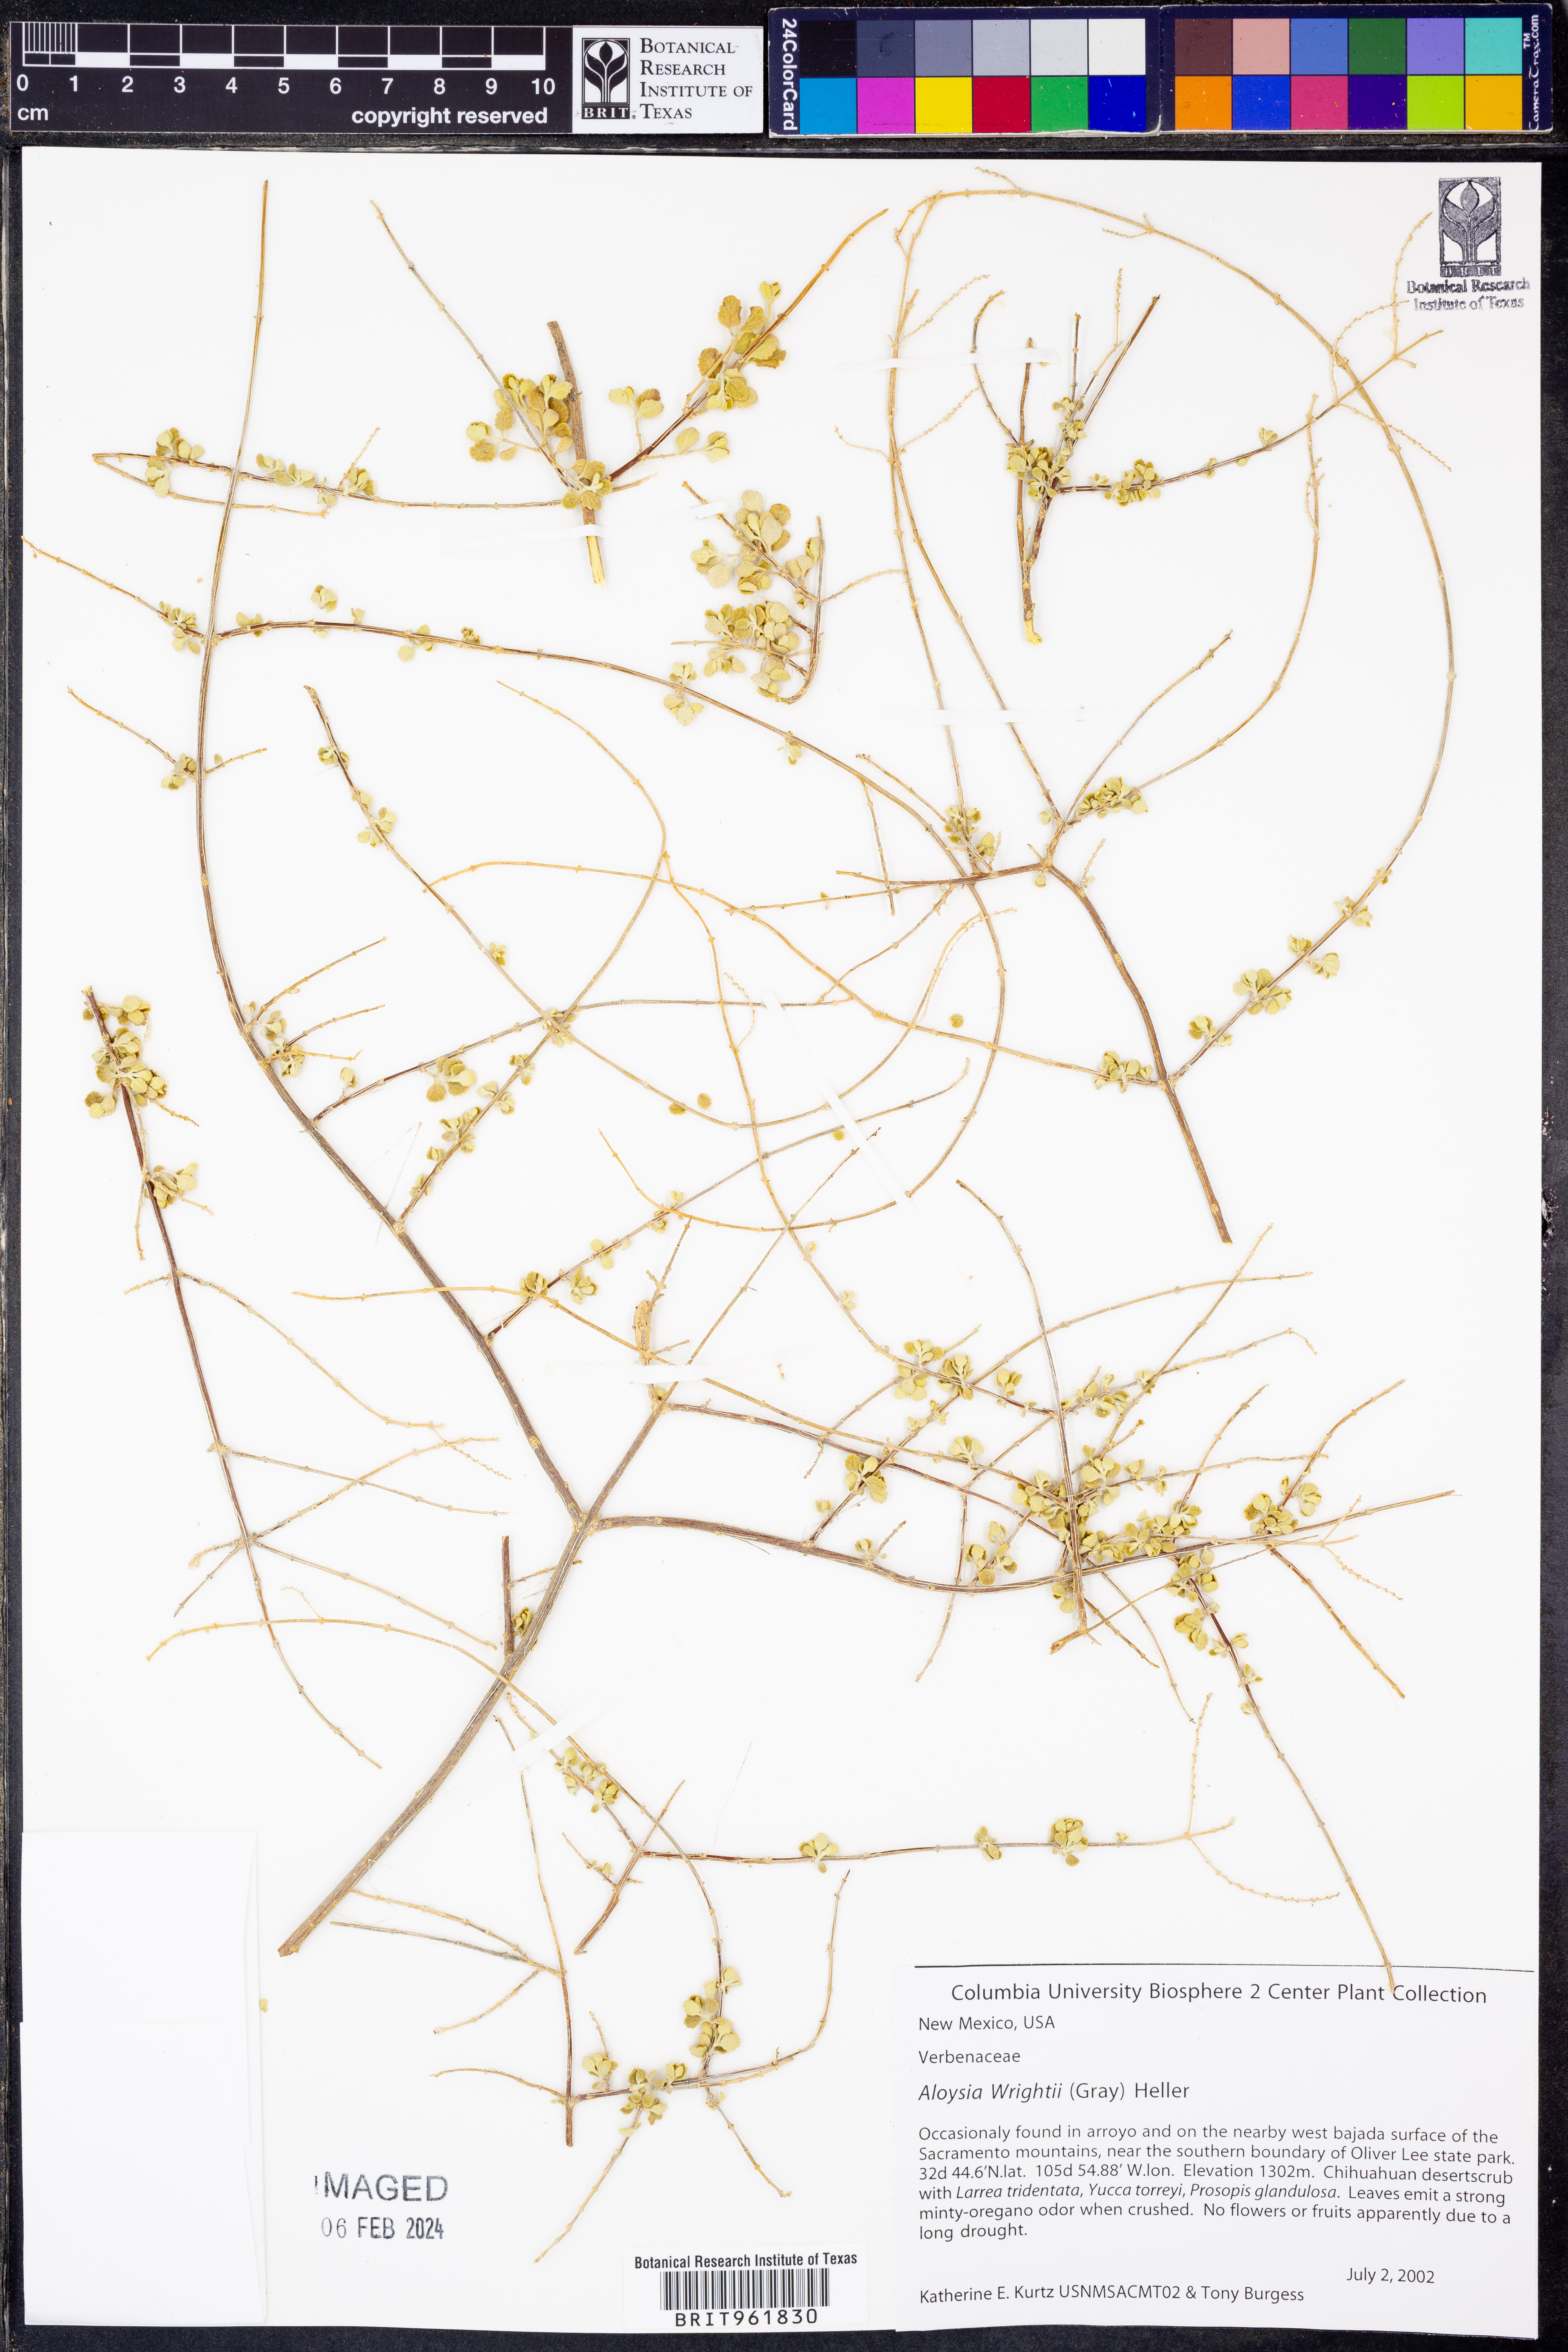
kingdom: Plantae
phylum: Tracheophyta
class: Magnoliopsida
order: Lamiales
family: Verbenaceae
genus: Aloysia
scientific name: Aloysia wrightii
